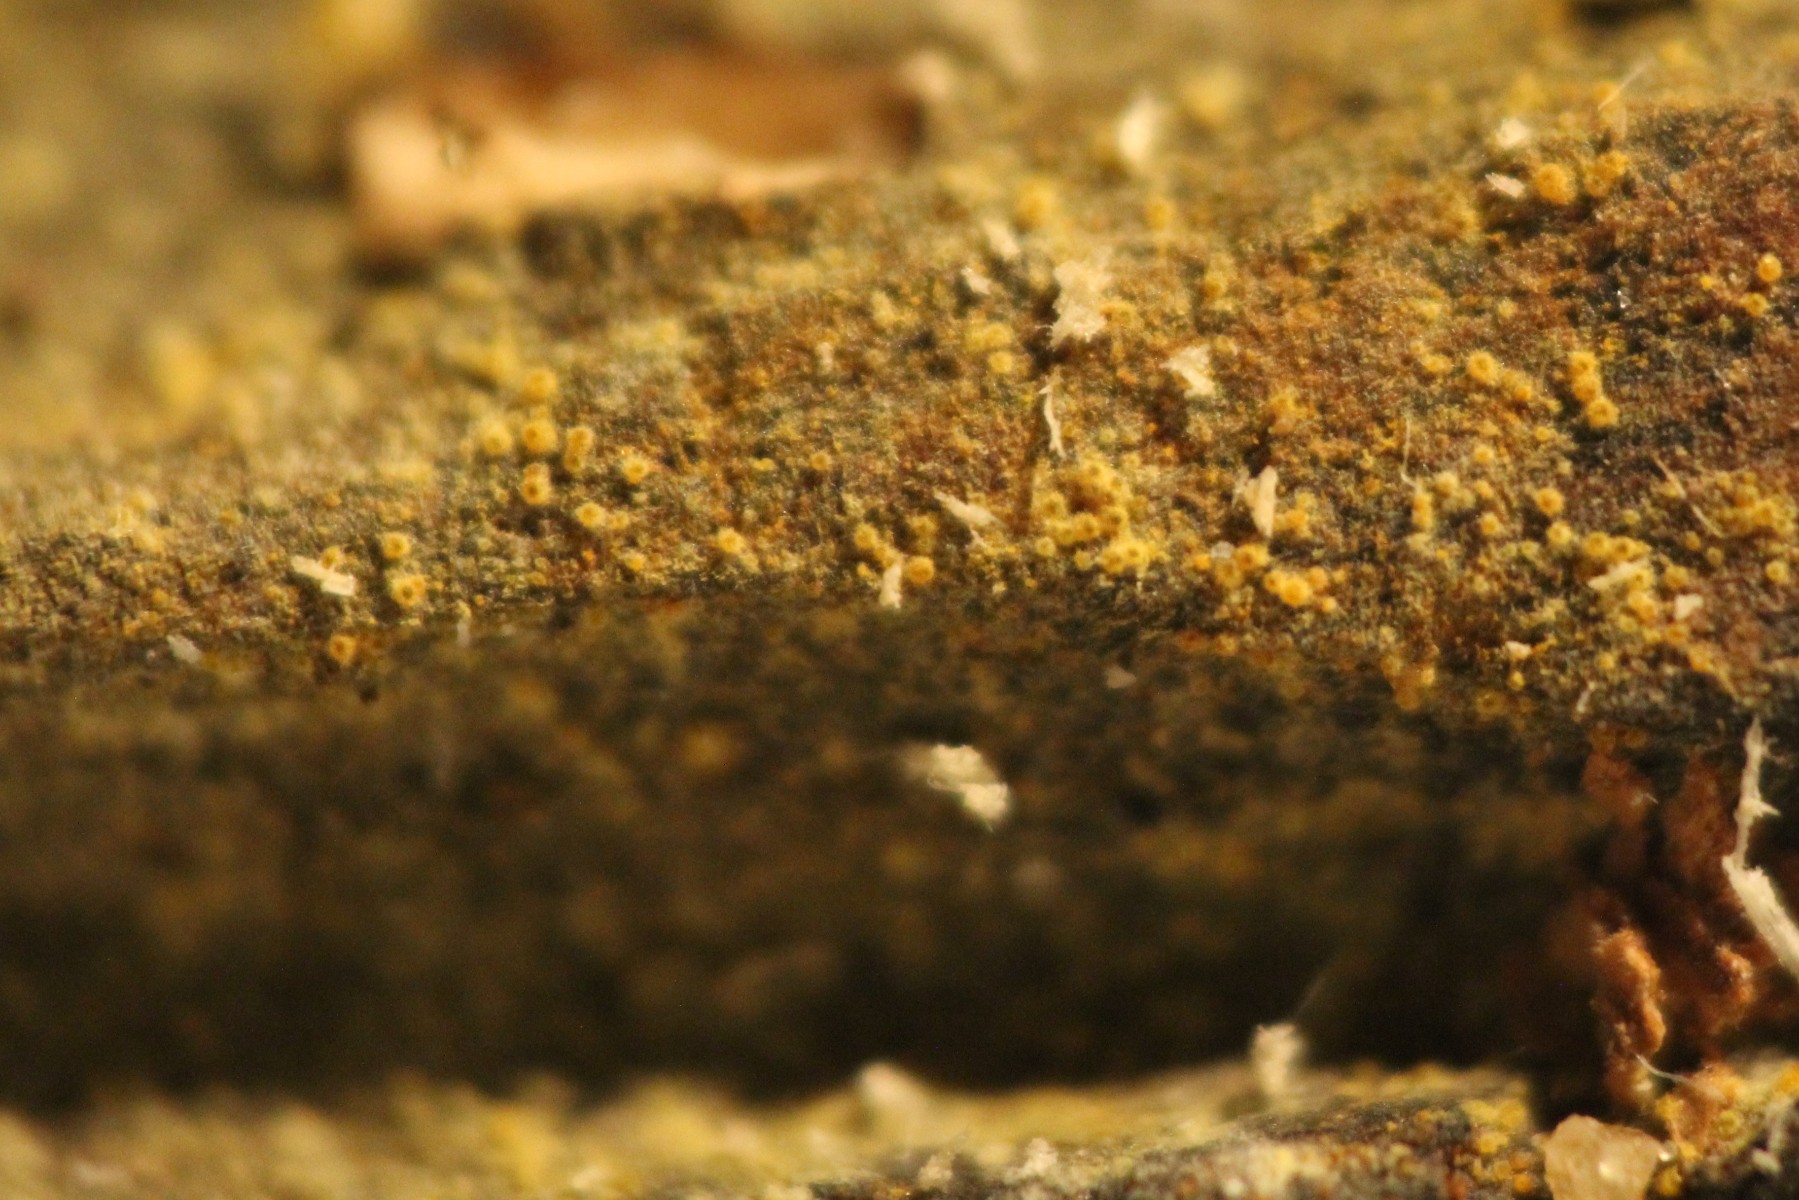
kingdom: Fungi
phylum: Ascomycota
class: Sordariomycetes
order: Hypocreales
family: Nectriaceae
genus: Chrysonectria
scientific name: Chrysonectria finisterrensis
